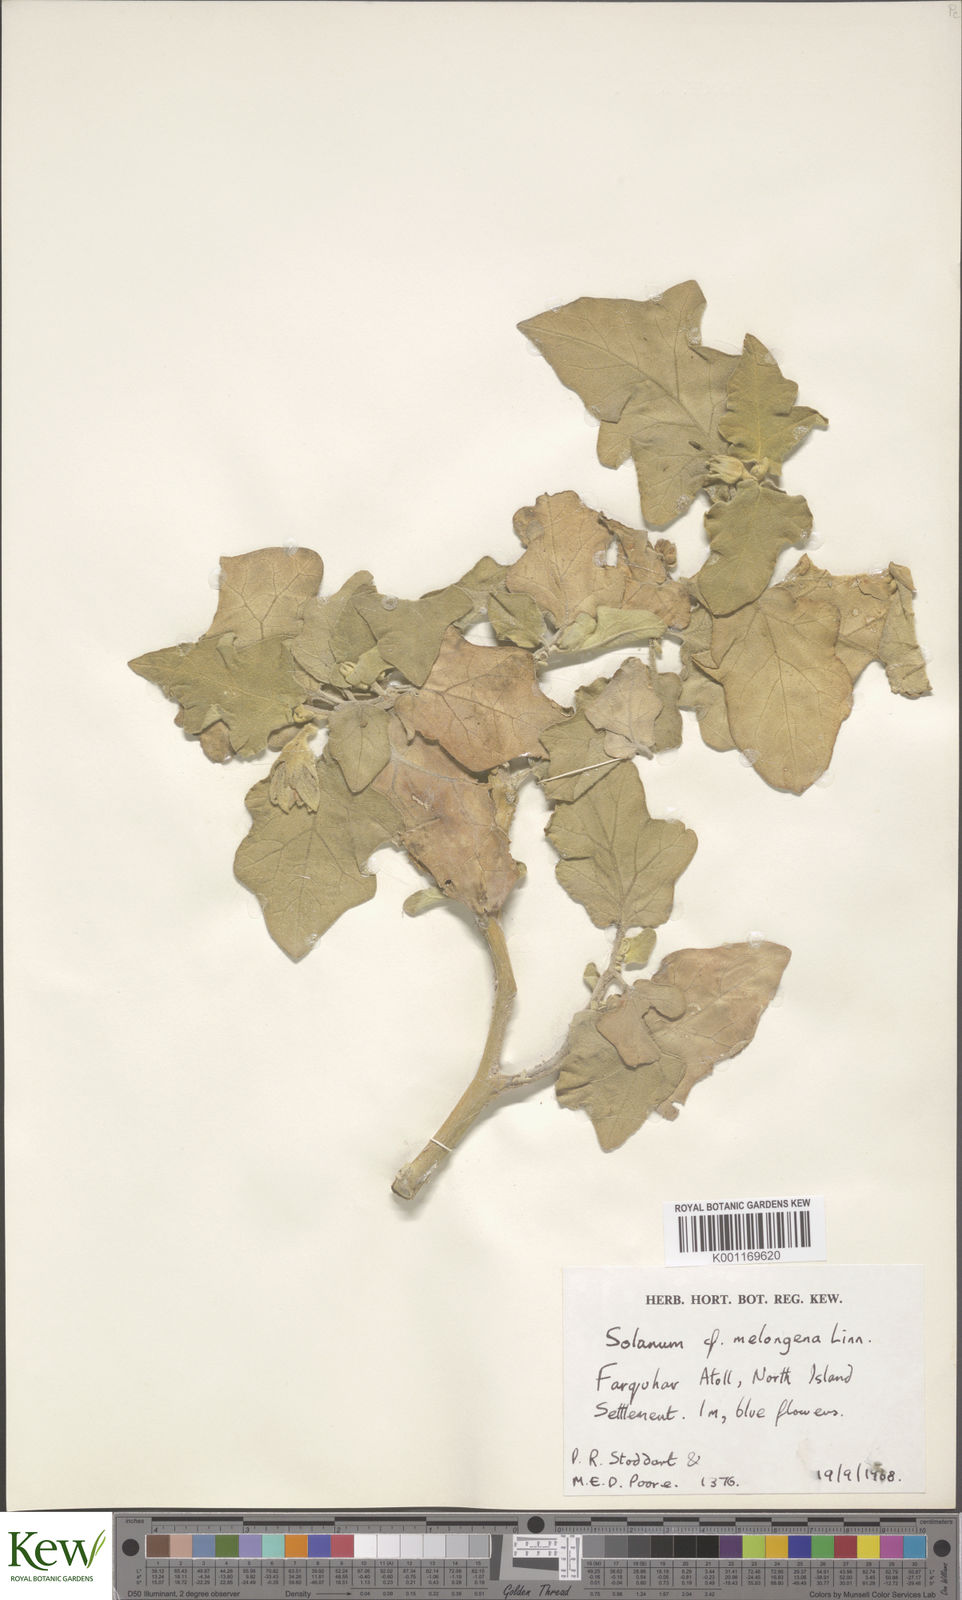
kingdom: Plantae
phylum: Tracheophyta
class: Magnoliopsida
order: Solanales
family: Solanaceae
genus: Solanum
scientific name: Solanum melongena
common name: Eggplant
